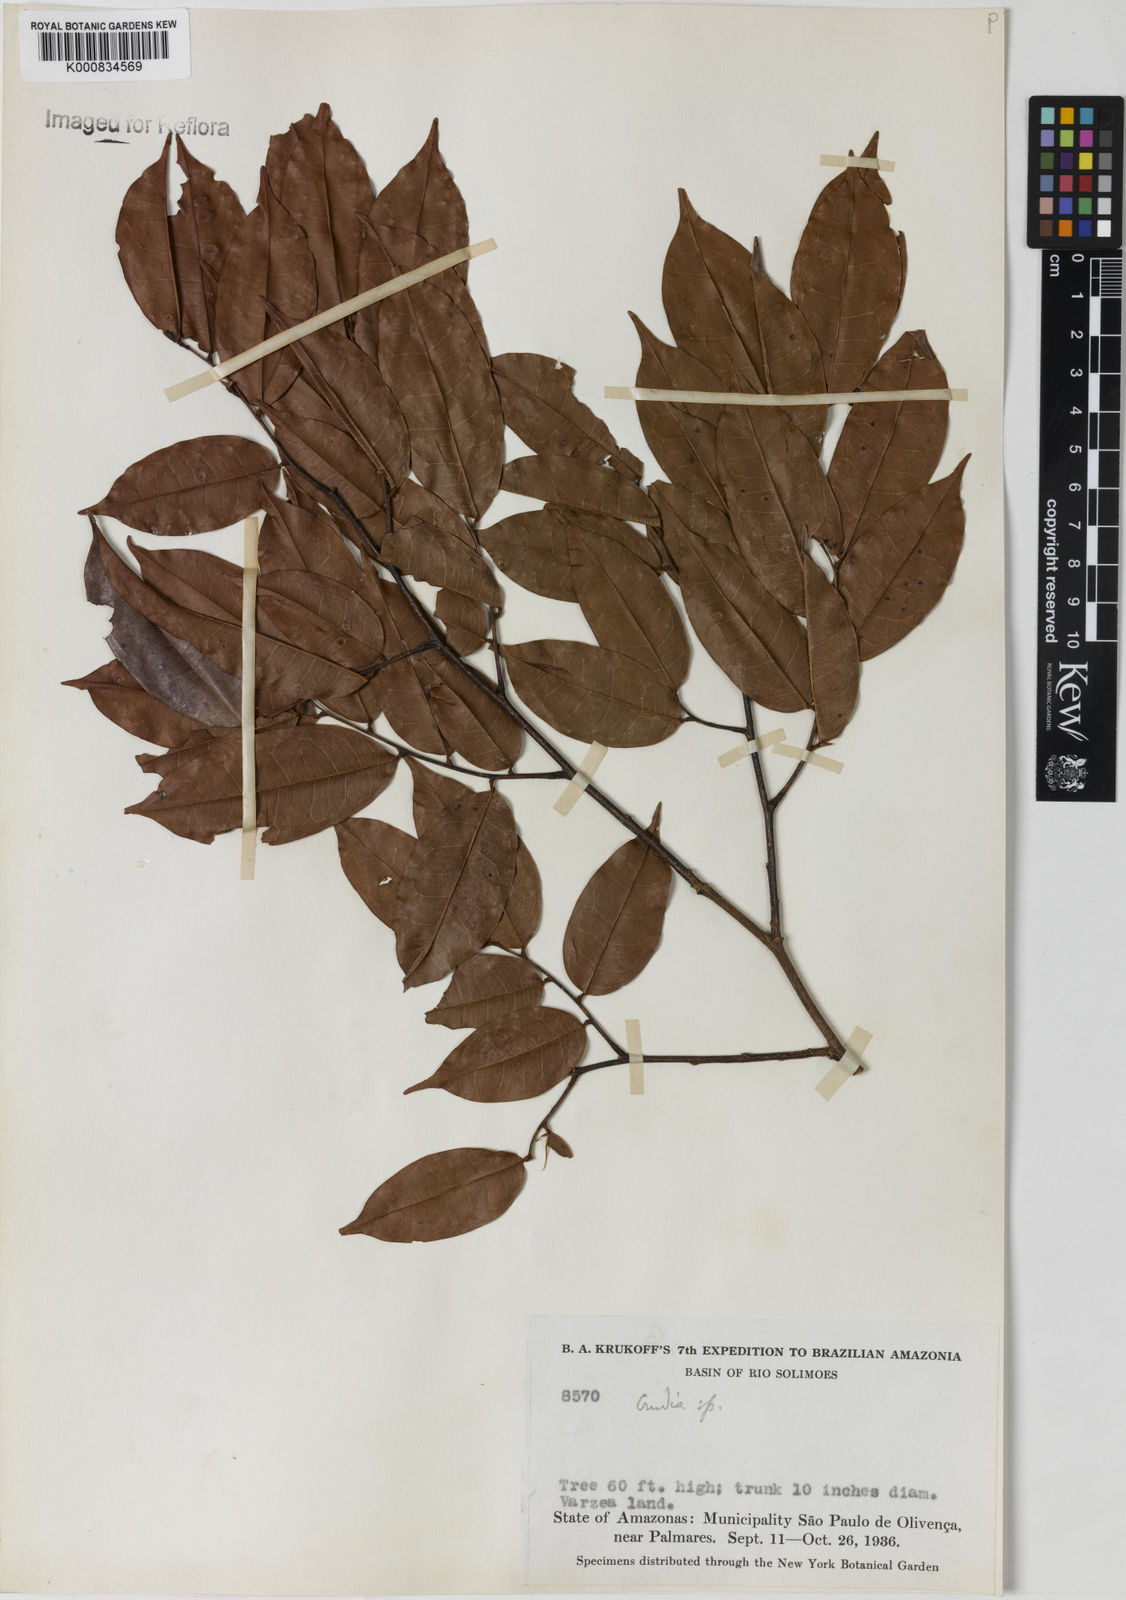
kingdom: Plantae
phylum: Tracheophyta
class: Magnoliopsida
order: Fabales
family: Fabaceae
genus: Crudia
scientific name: Crudia
